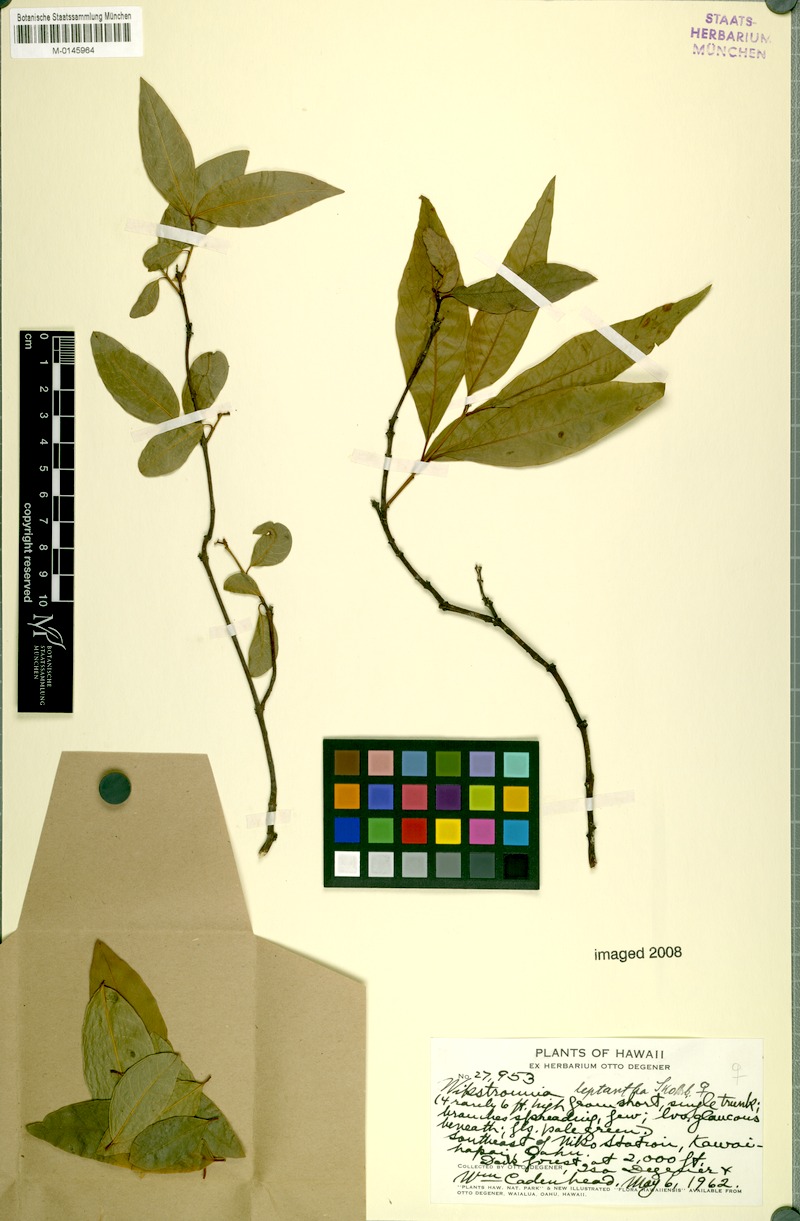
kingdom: Plantae
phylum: Tracheophyta
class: Magnoliopsida
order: Malvales
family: Thymelaeaceae
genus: Wikstroemia
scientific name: Wikstroemia oahuensis
